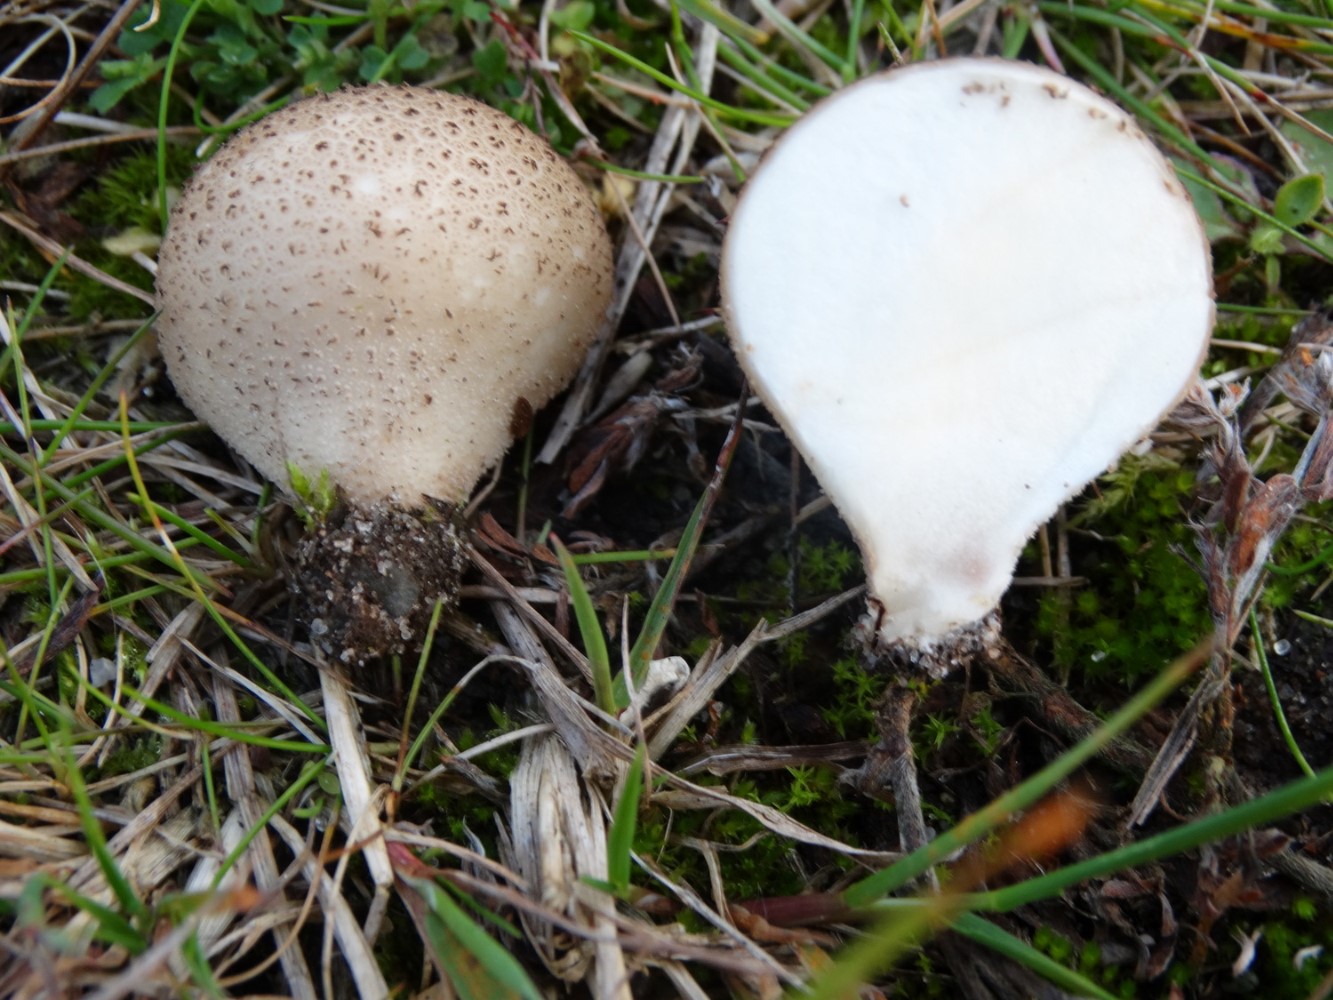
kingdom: Fungi
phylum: Basidiomycota
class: Agaricomycetes
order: Agaricales
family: Agaricaceae
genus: Lycoperdon
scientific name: Lycoperdon
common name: støvbold
